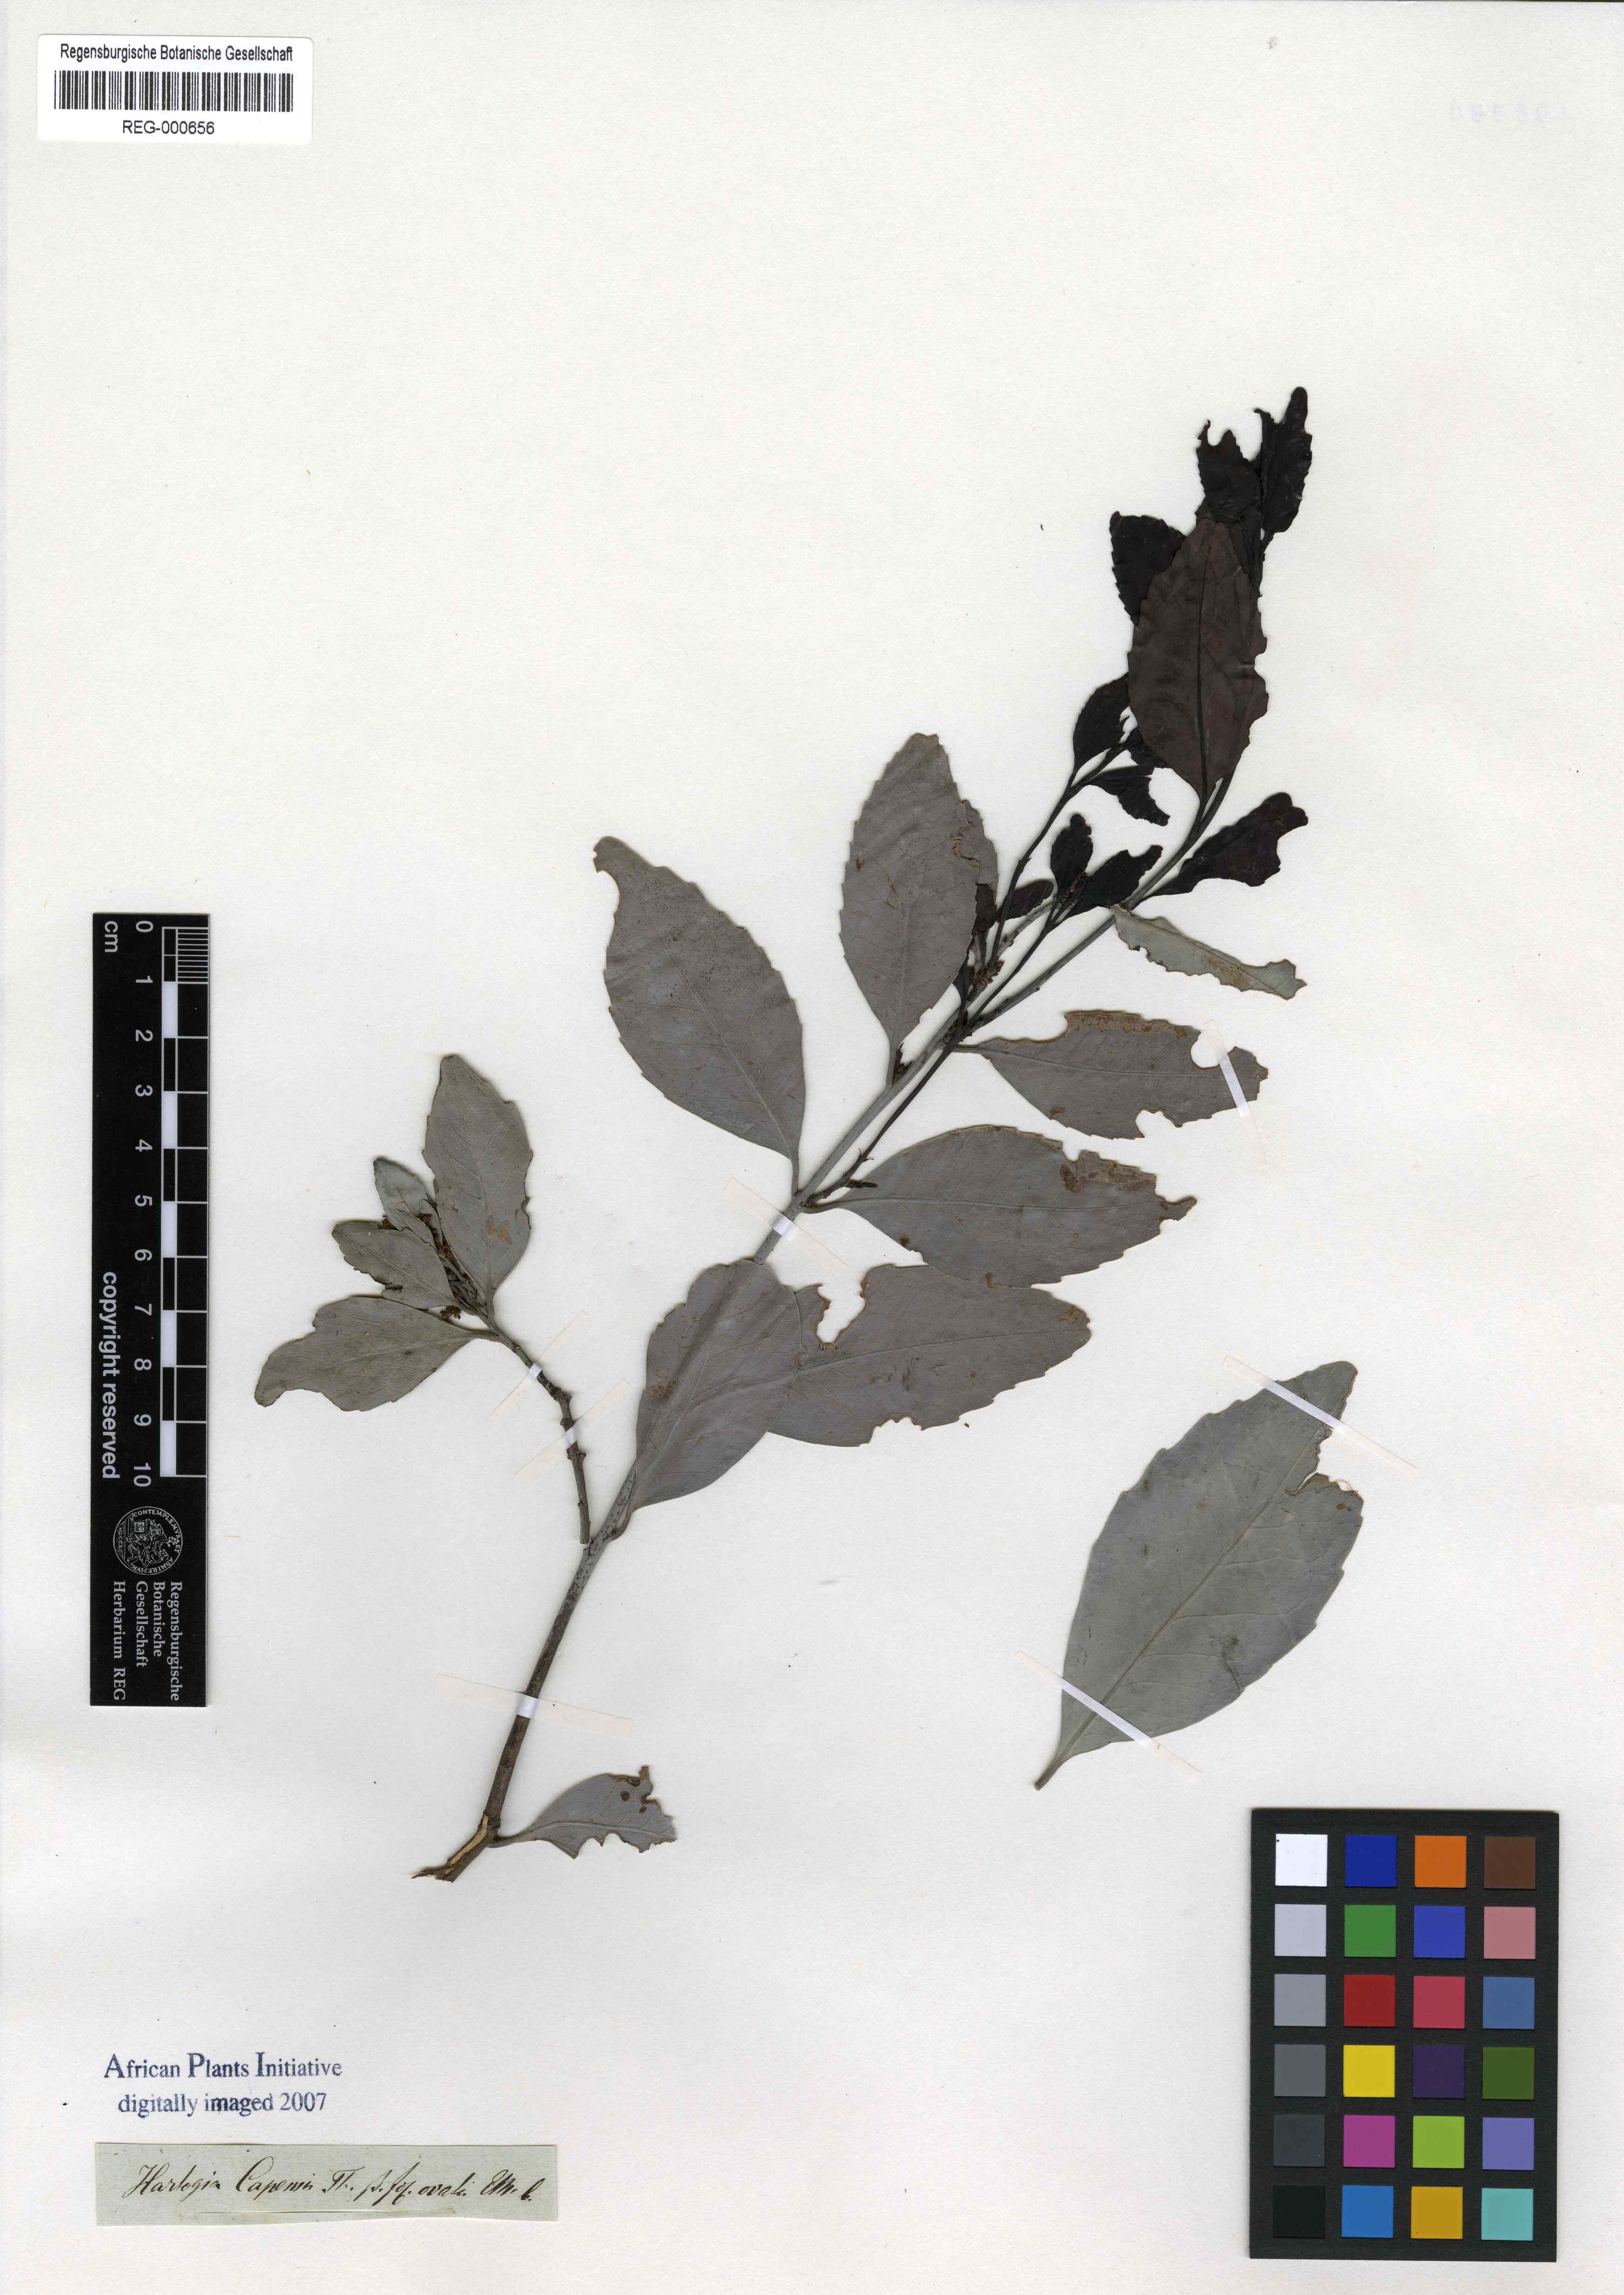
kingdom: Plantae
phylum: Tracheophyta
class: Magnoliopsida
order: Sapindales
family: Rutaceae
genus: Agathosma
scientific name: Agathosma capensis
